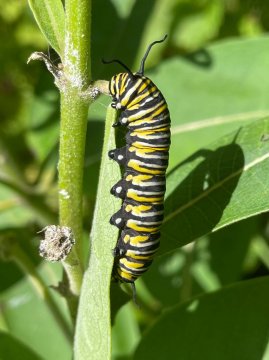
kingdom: Animalia
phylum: Arthropoda
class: Insecta
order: Lepidoptera
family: Nymphalidae
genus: Danaus
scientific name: Danaus plexippus
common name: Monarch
